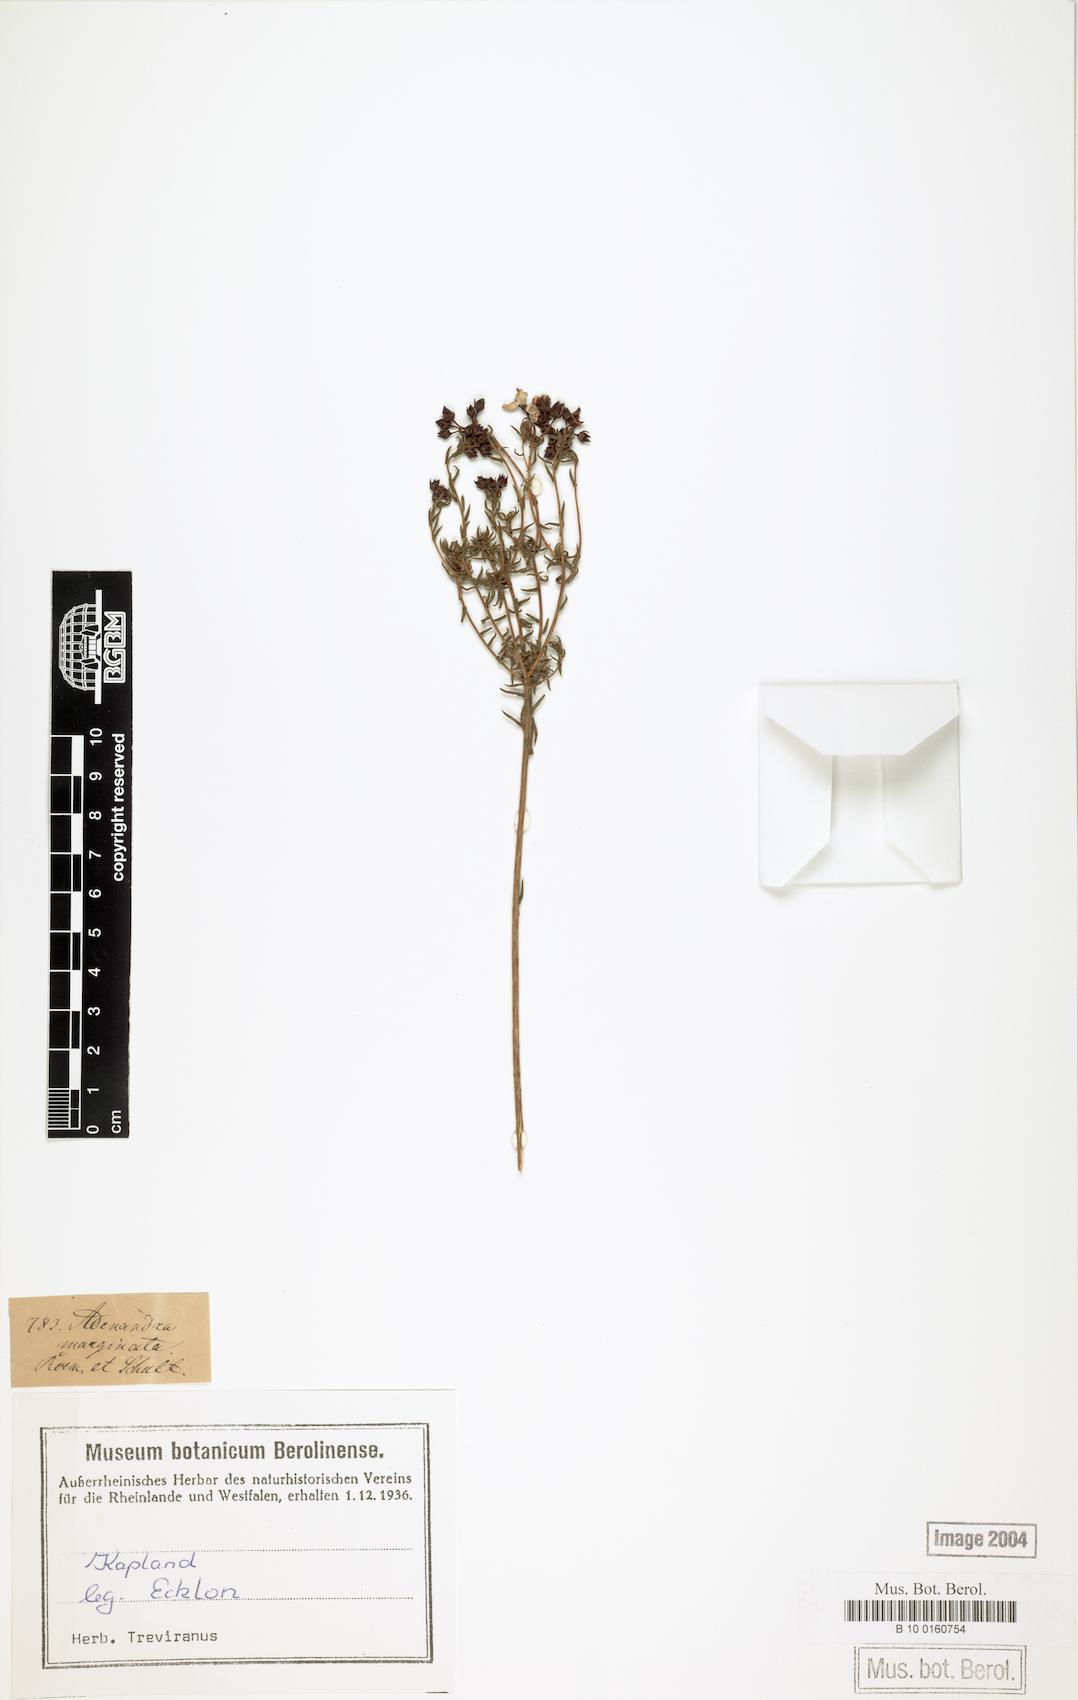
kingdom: Plantae
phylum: Tracheophyta
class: Magnoliopsida
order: Sapindales
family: Rutaceae
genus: Adenandra
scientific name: Adenandra marginata
